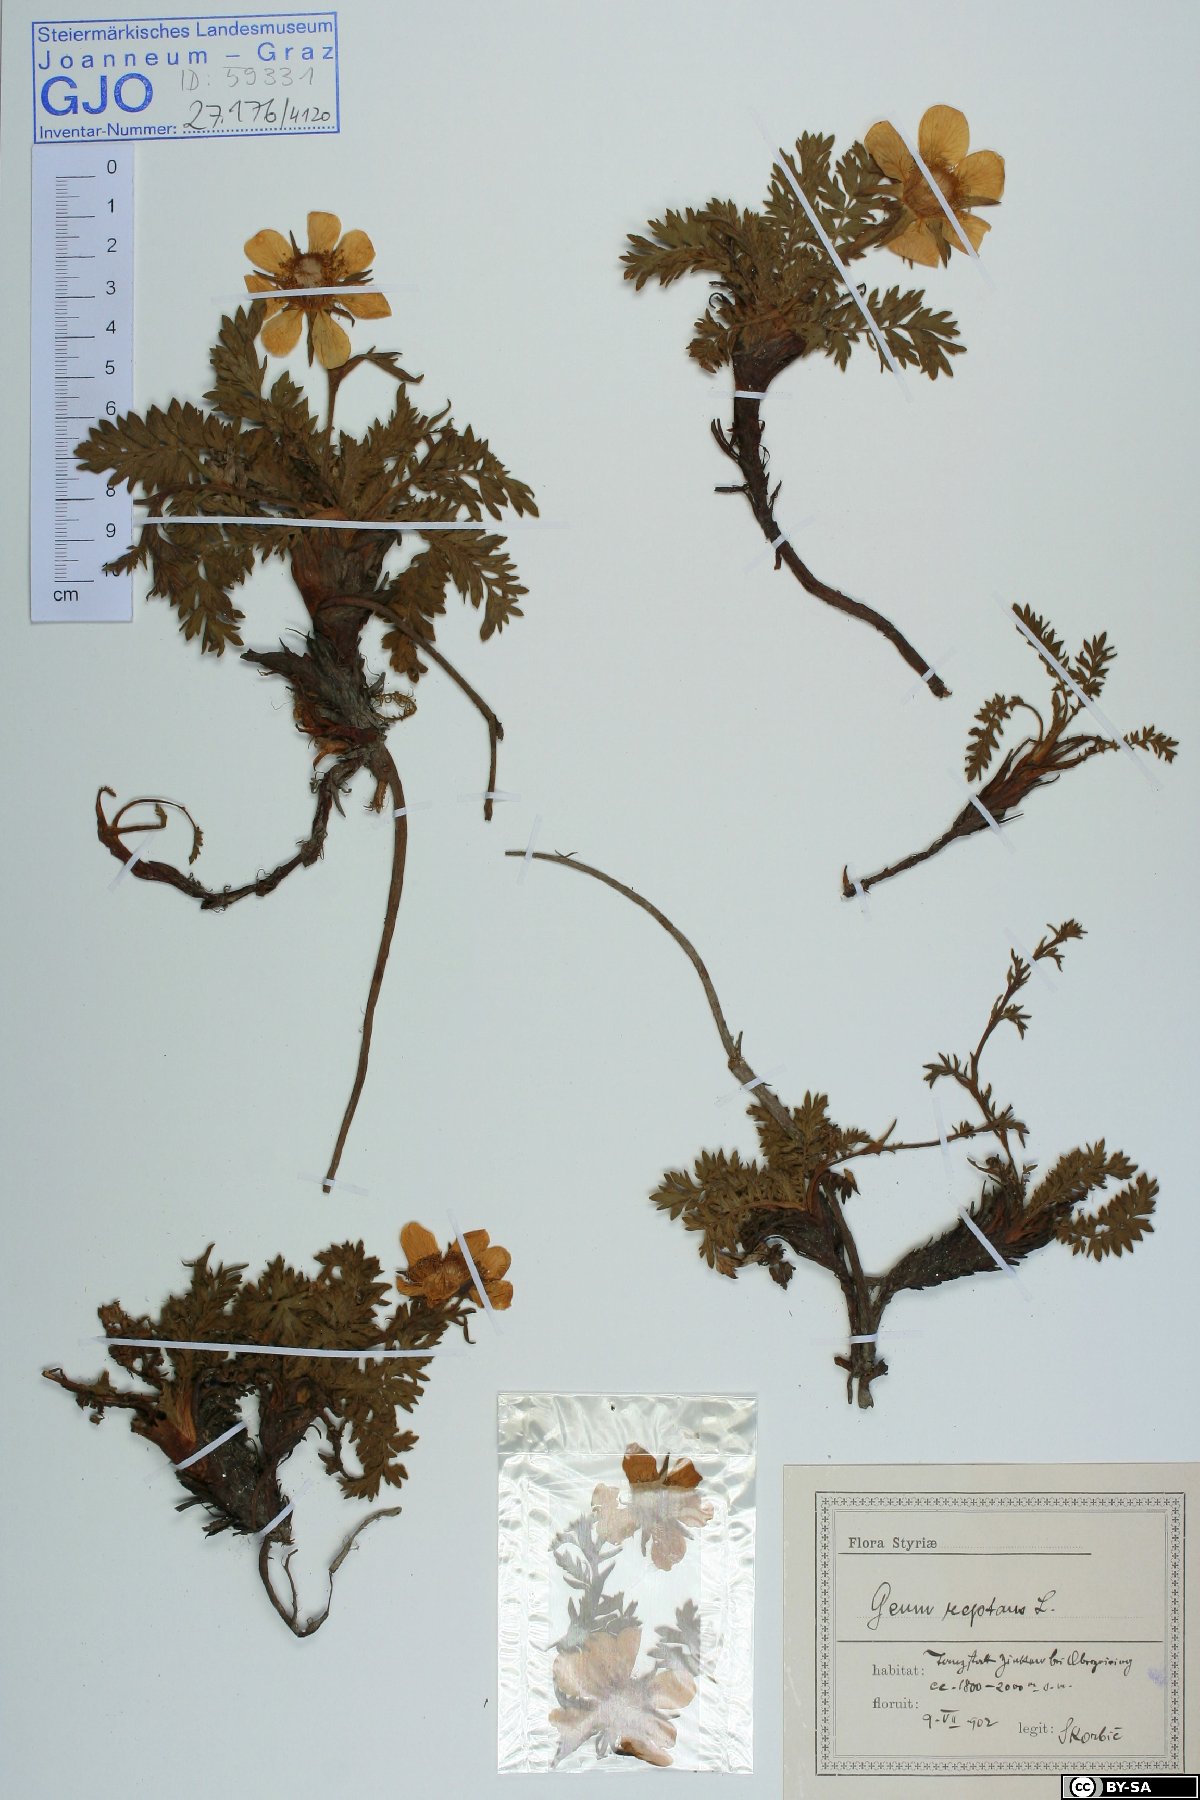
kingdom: Plantae
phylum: Tracheophyta
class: Magnoliopsida
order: Rosales
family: Rosaceae
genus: Geum
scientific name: Geum reptans
